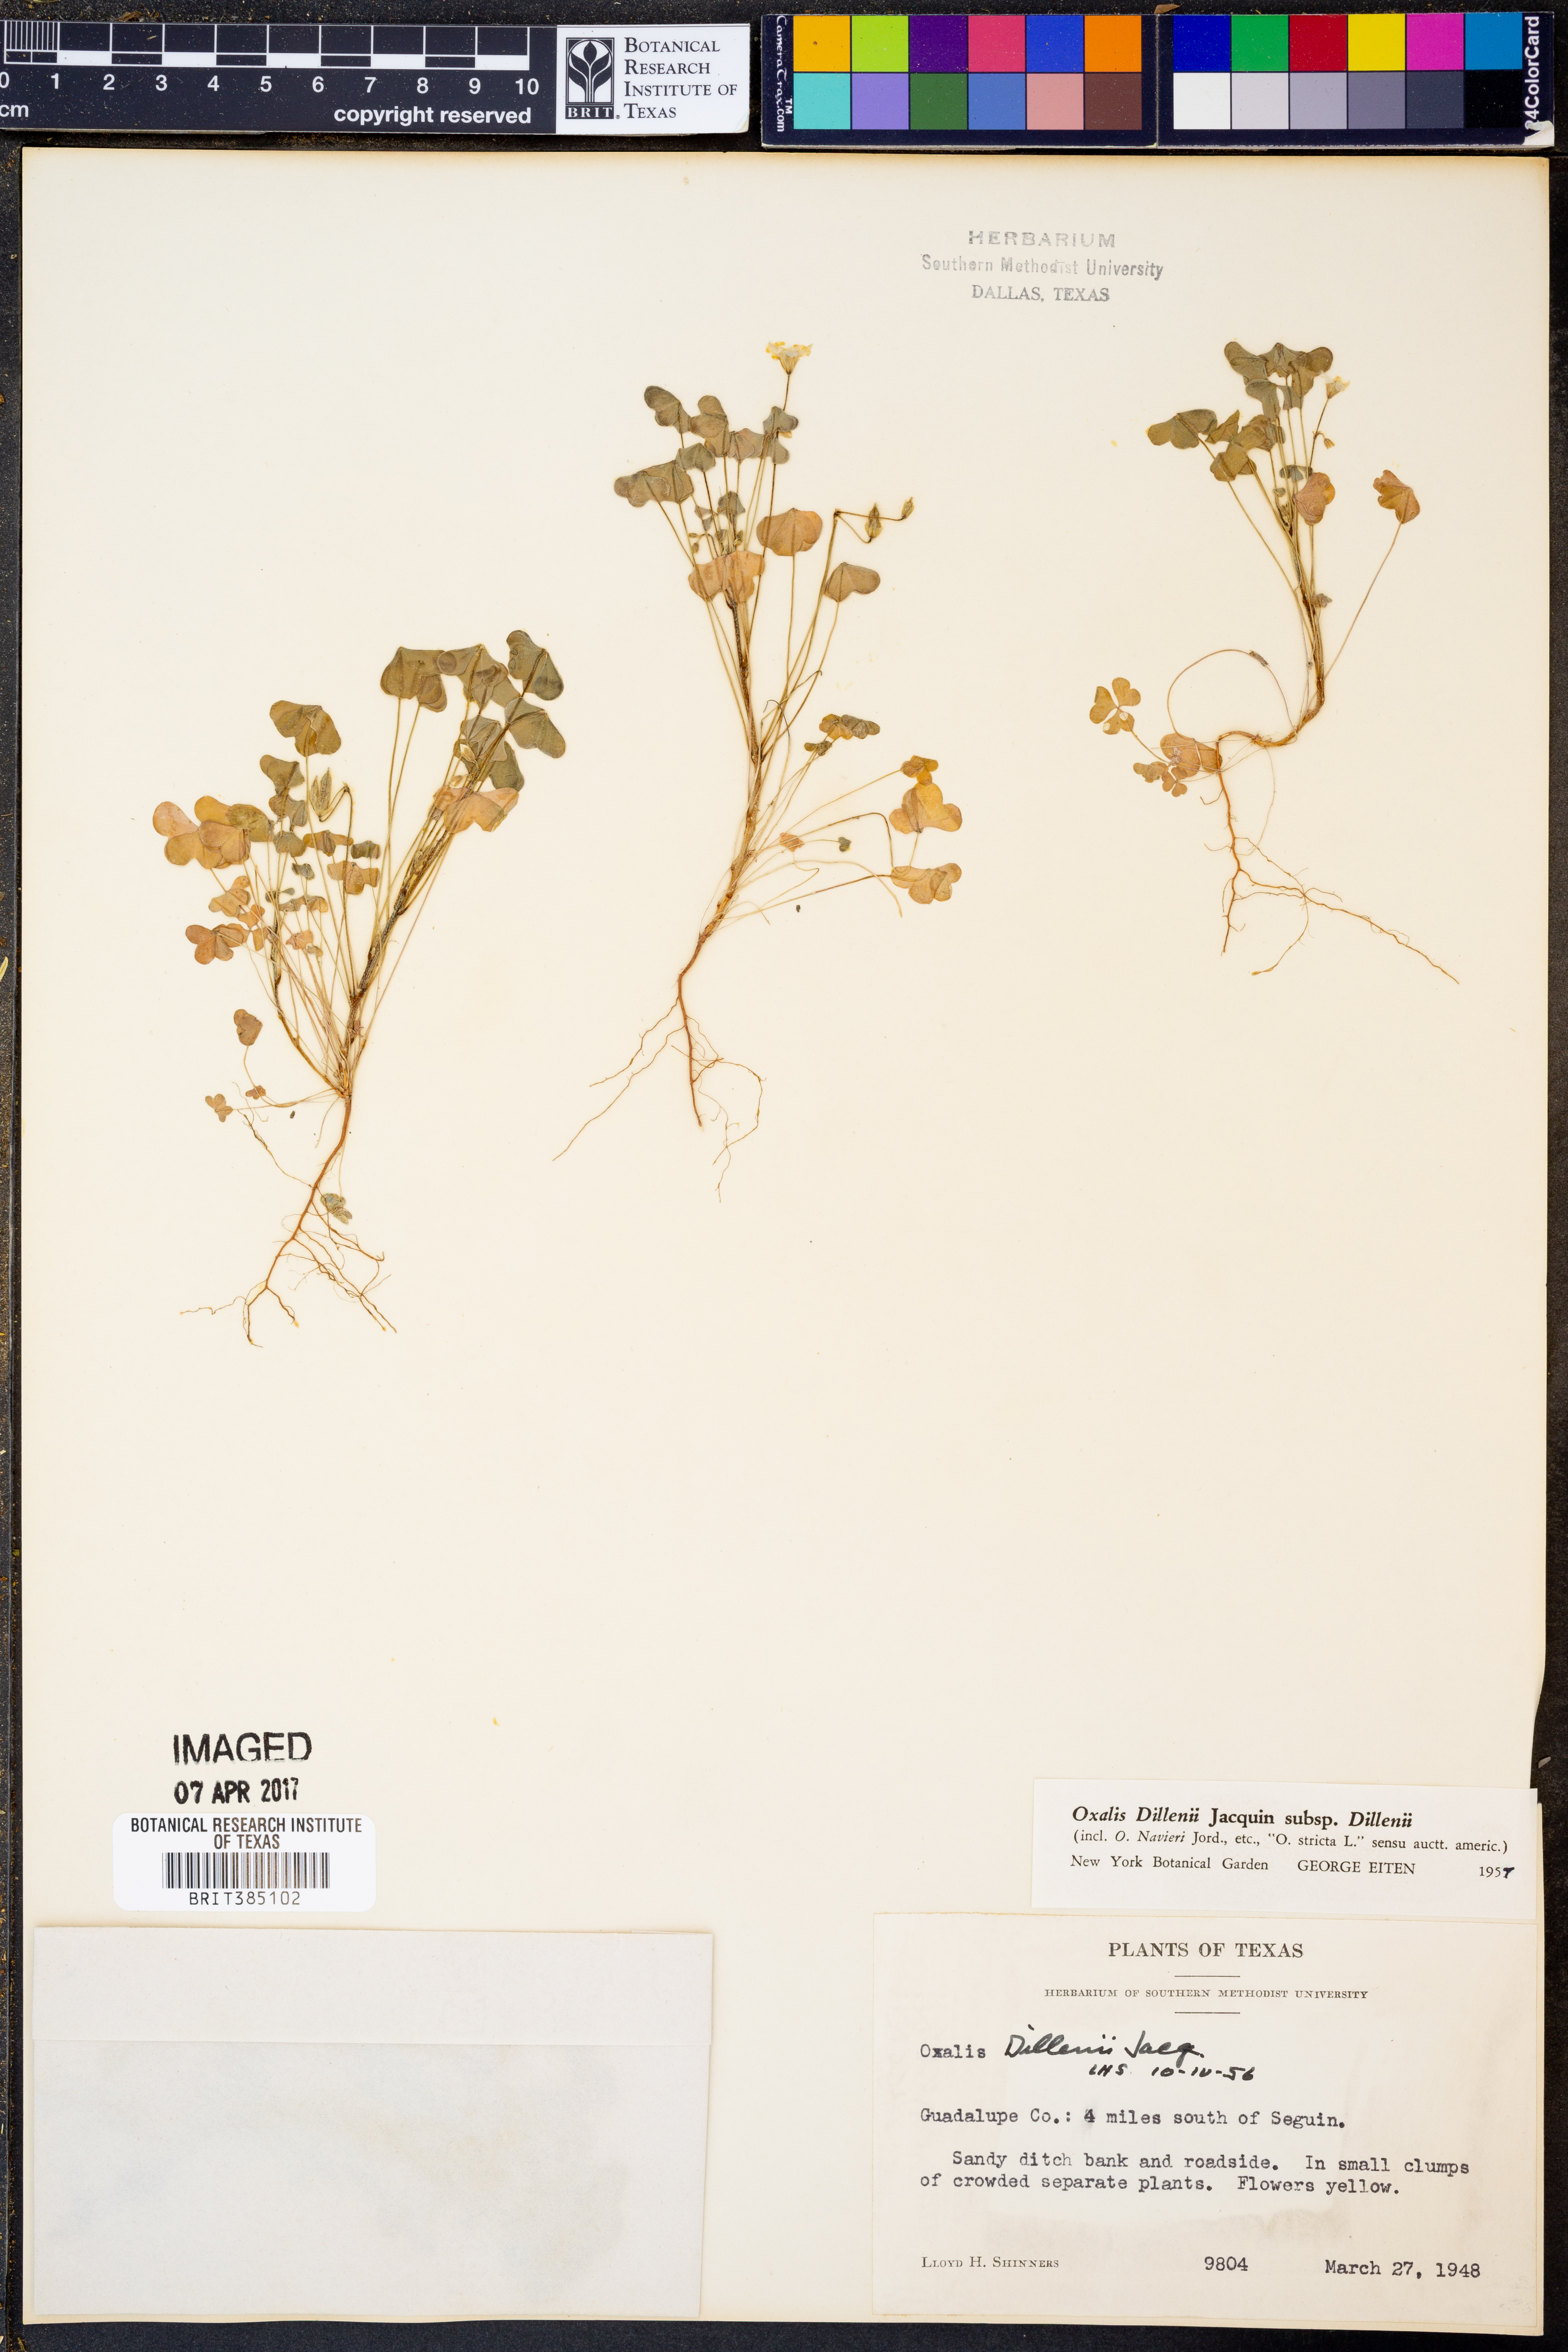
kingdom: Plantae
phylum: Tracheophyta
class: Magnoliopsida
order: Oxalidales
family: Oxalidaceae
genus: Oxalis
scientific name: Oxalis dillenii
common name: Sussex yellow-sorrel
